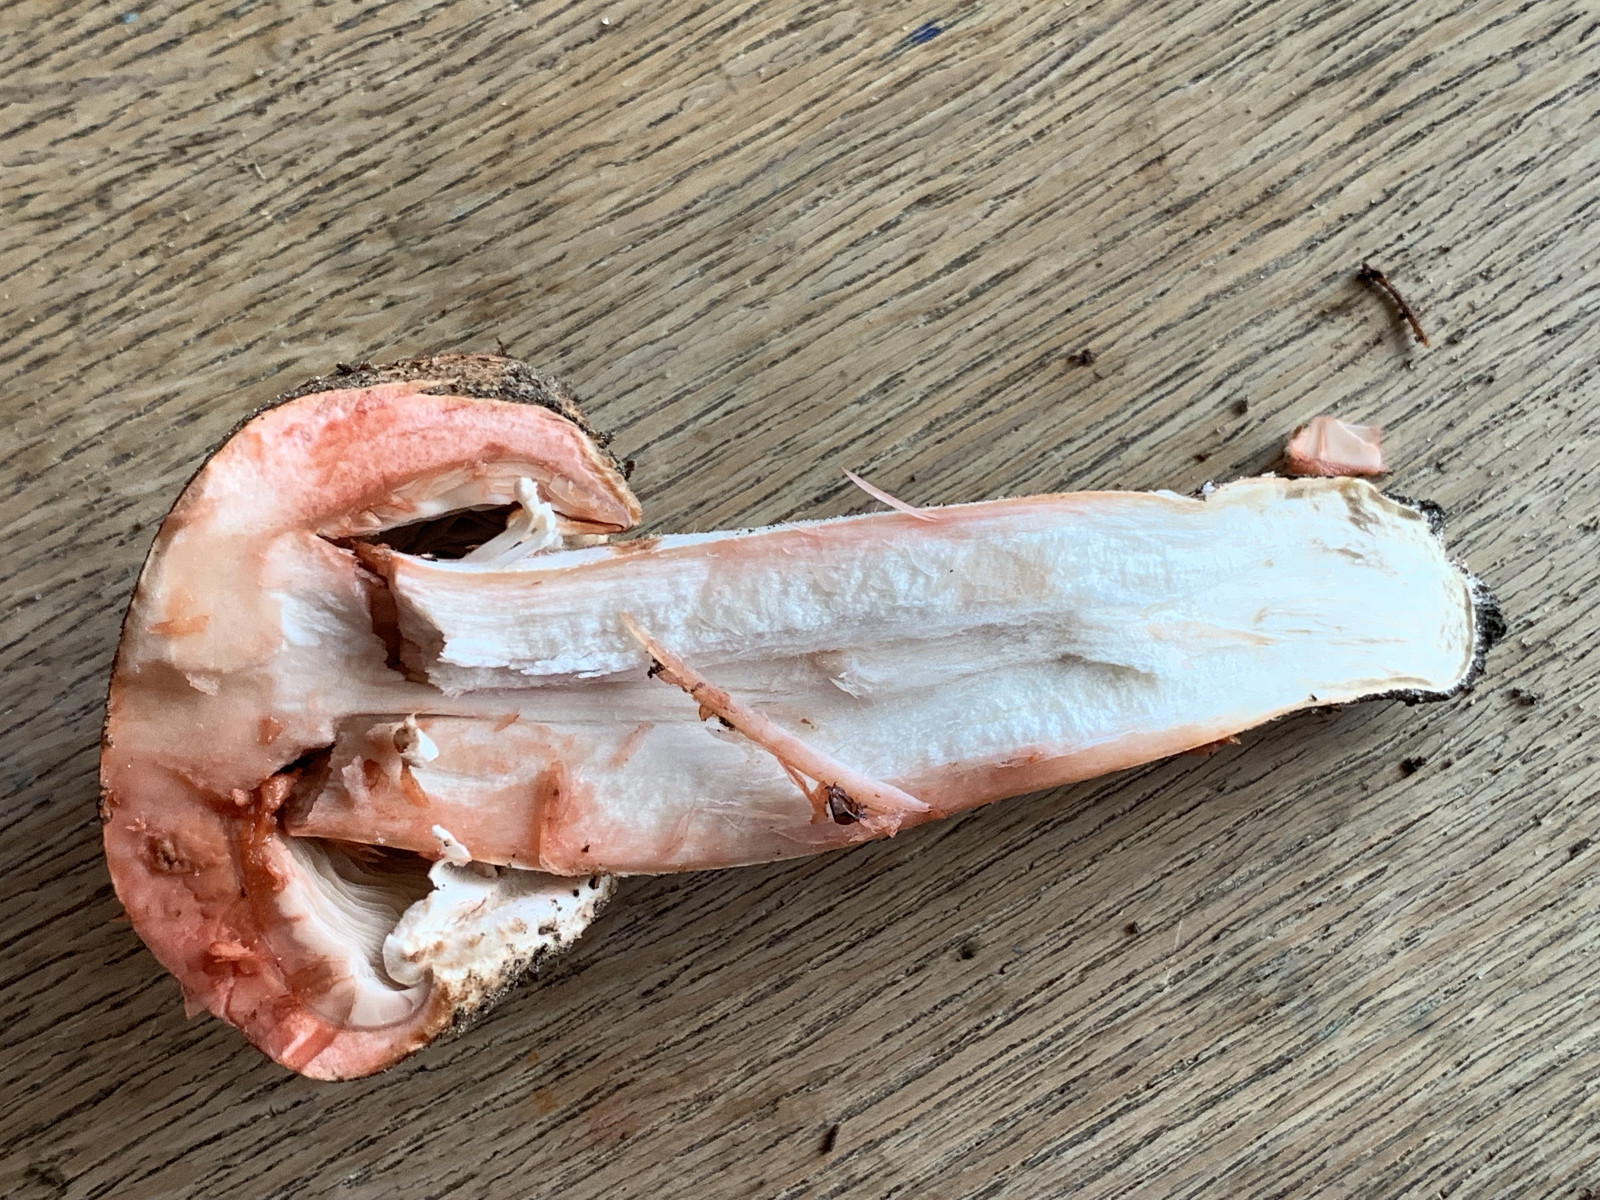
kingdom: Fungi
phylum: Basidiomycota
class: Agaricomycetes
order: Agaricales
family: Agaricaceae
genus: Agaricus
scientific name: Agaricus sylvaticus
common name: lille blod-champignon
